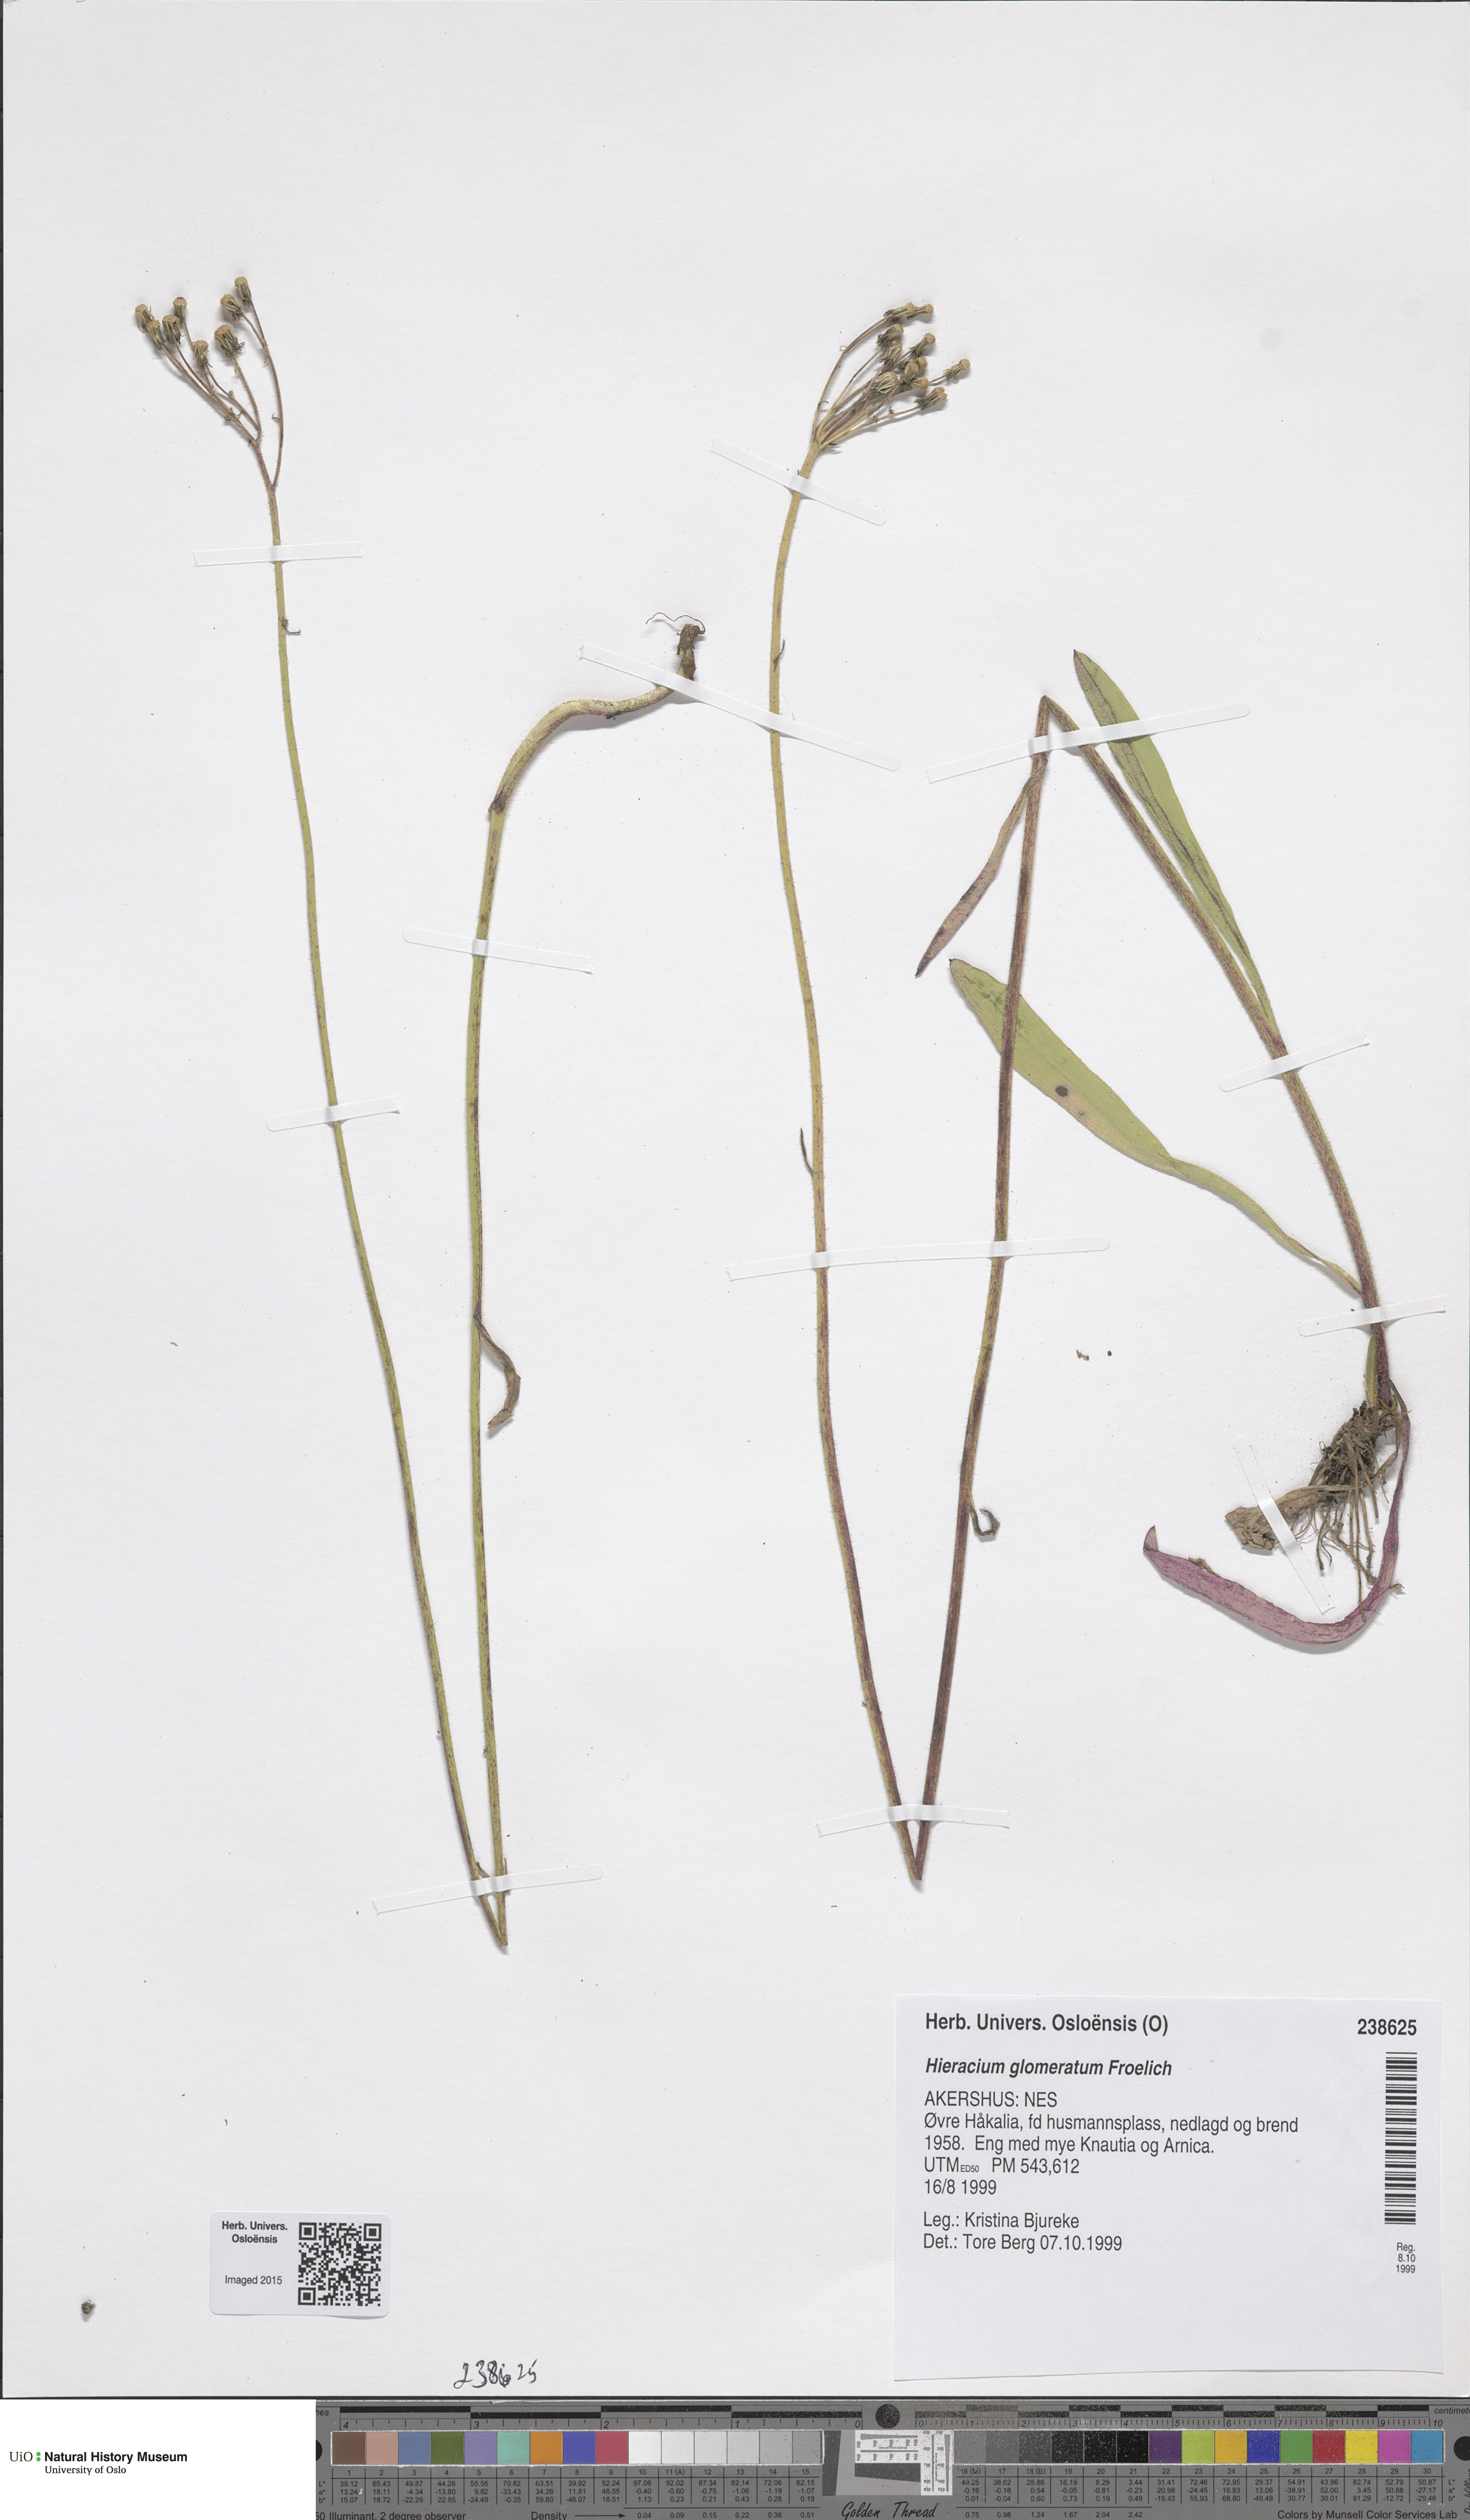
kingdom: Plantae
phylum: Tracheophyta
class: Magnoliopsida
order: Asterales
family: Asteraceae
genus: Pilosella
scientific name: Pilosella glomerata
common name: Queen devil hawkweed
